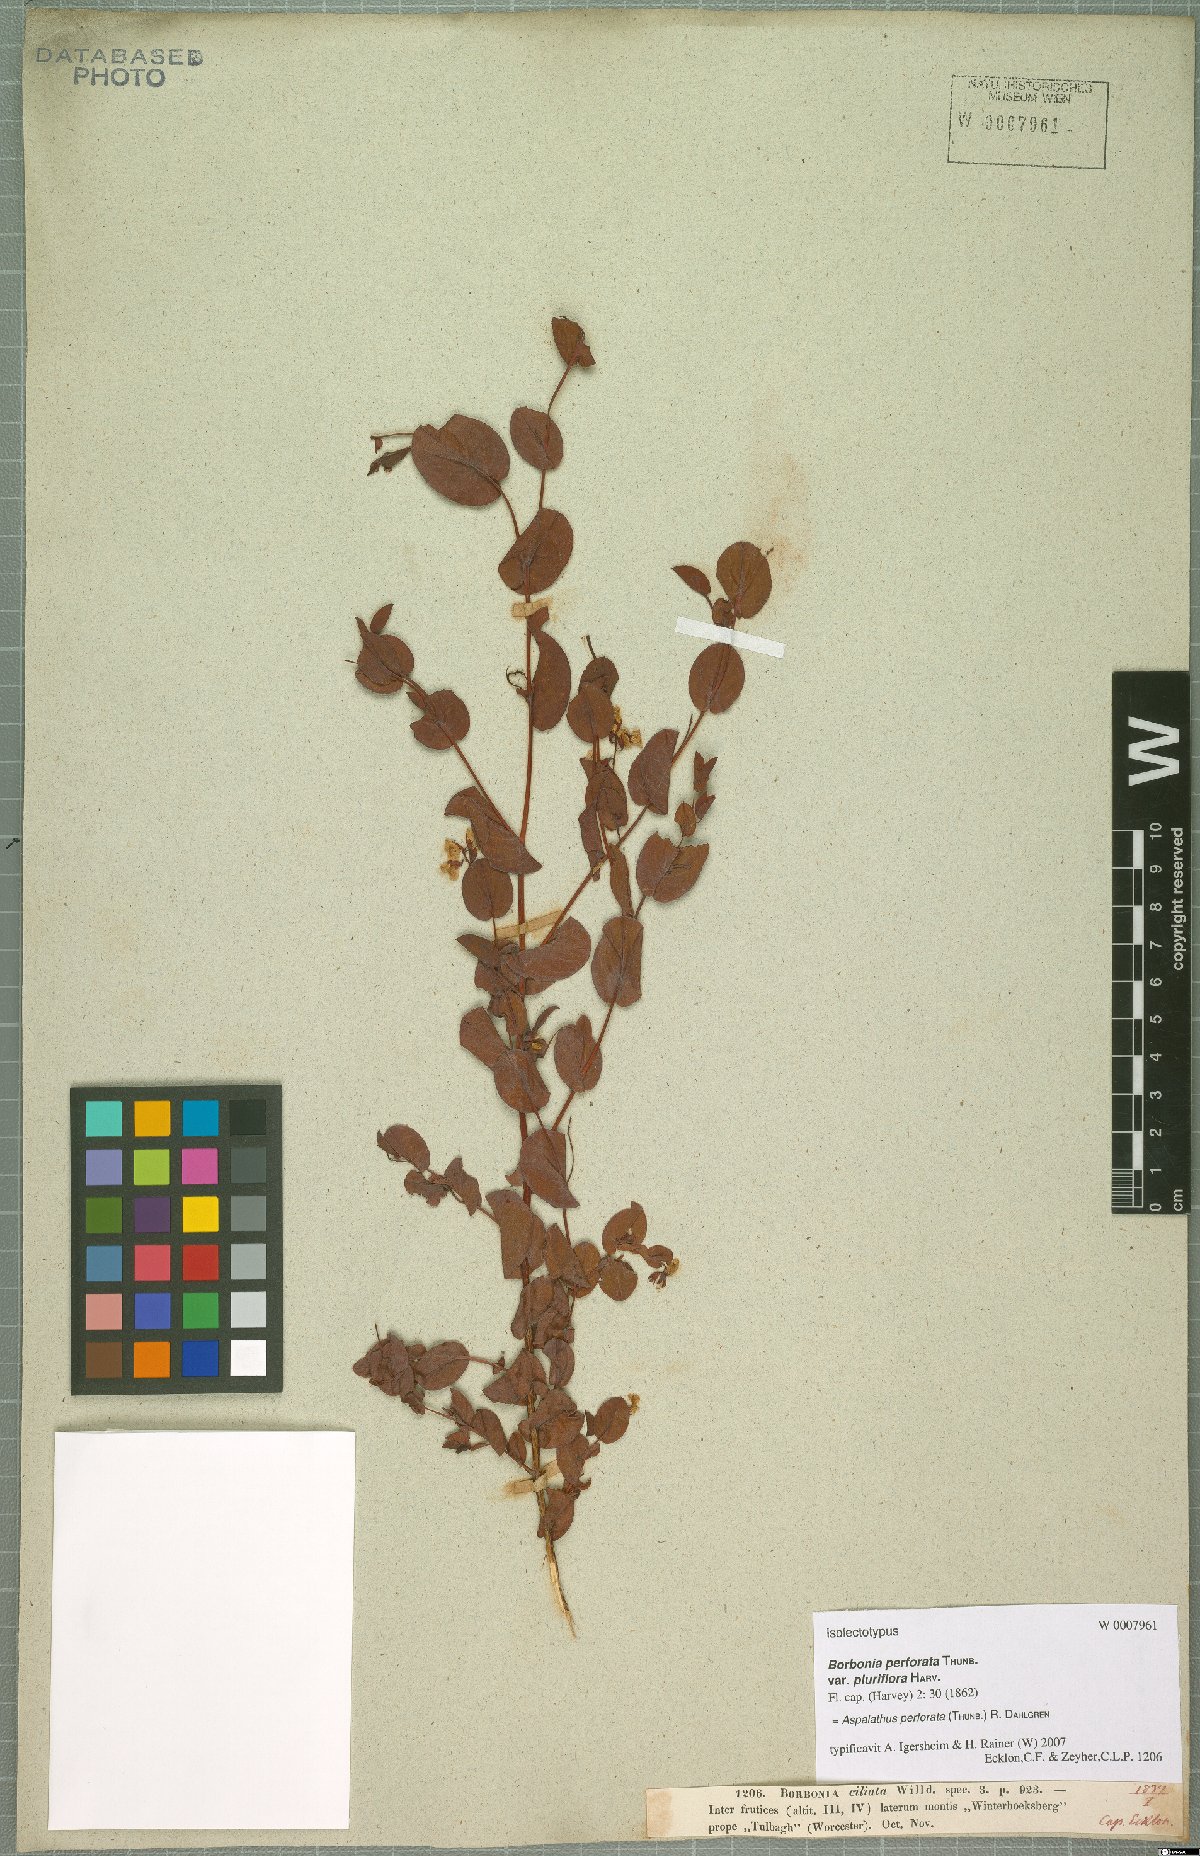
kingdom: Plantae
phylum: Tracheophyta
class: Magnoliopsida
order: Fabales
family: Fabaceae
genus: Aspalathus
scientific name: Aspalathus perforata
